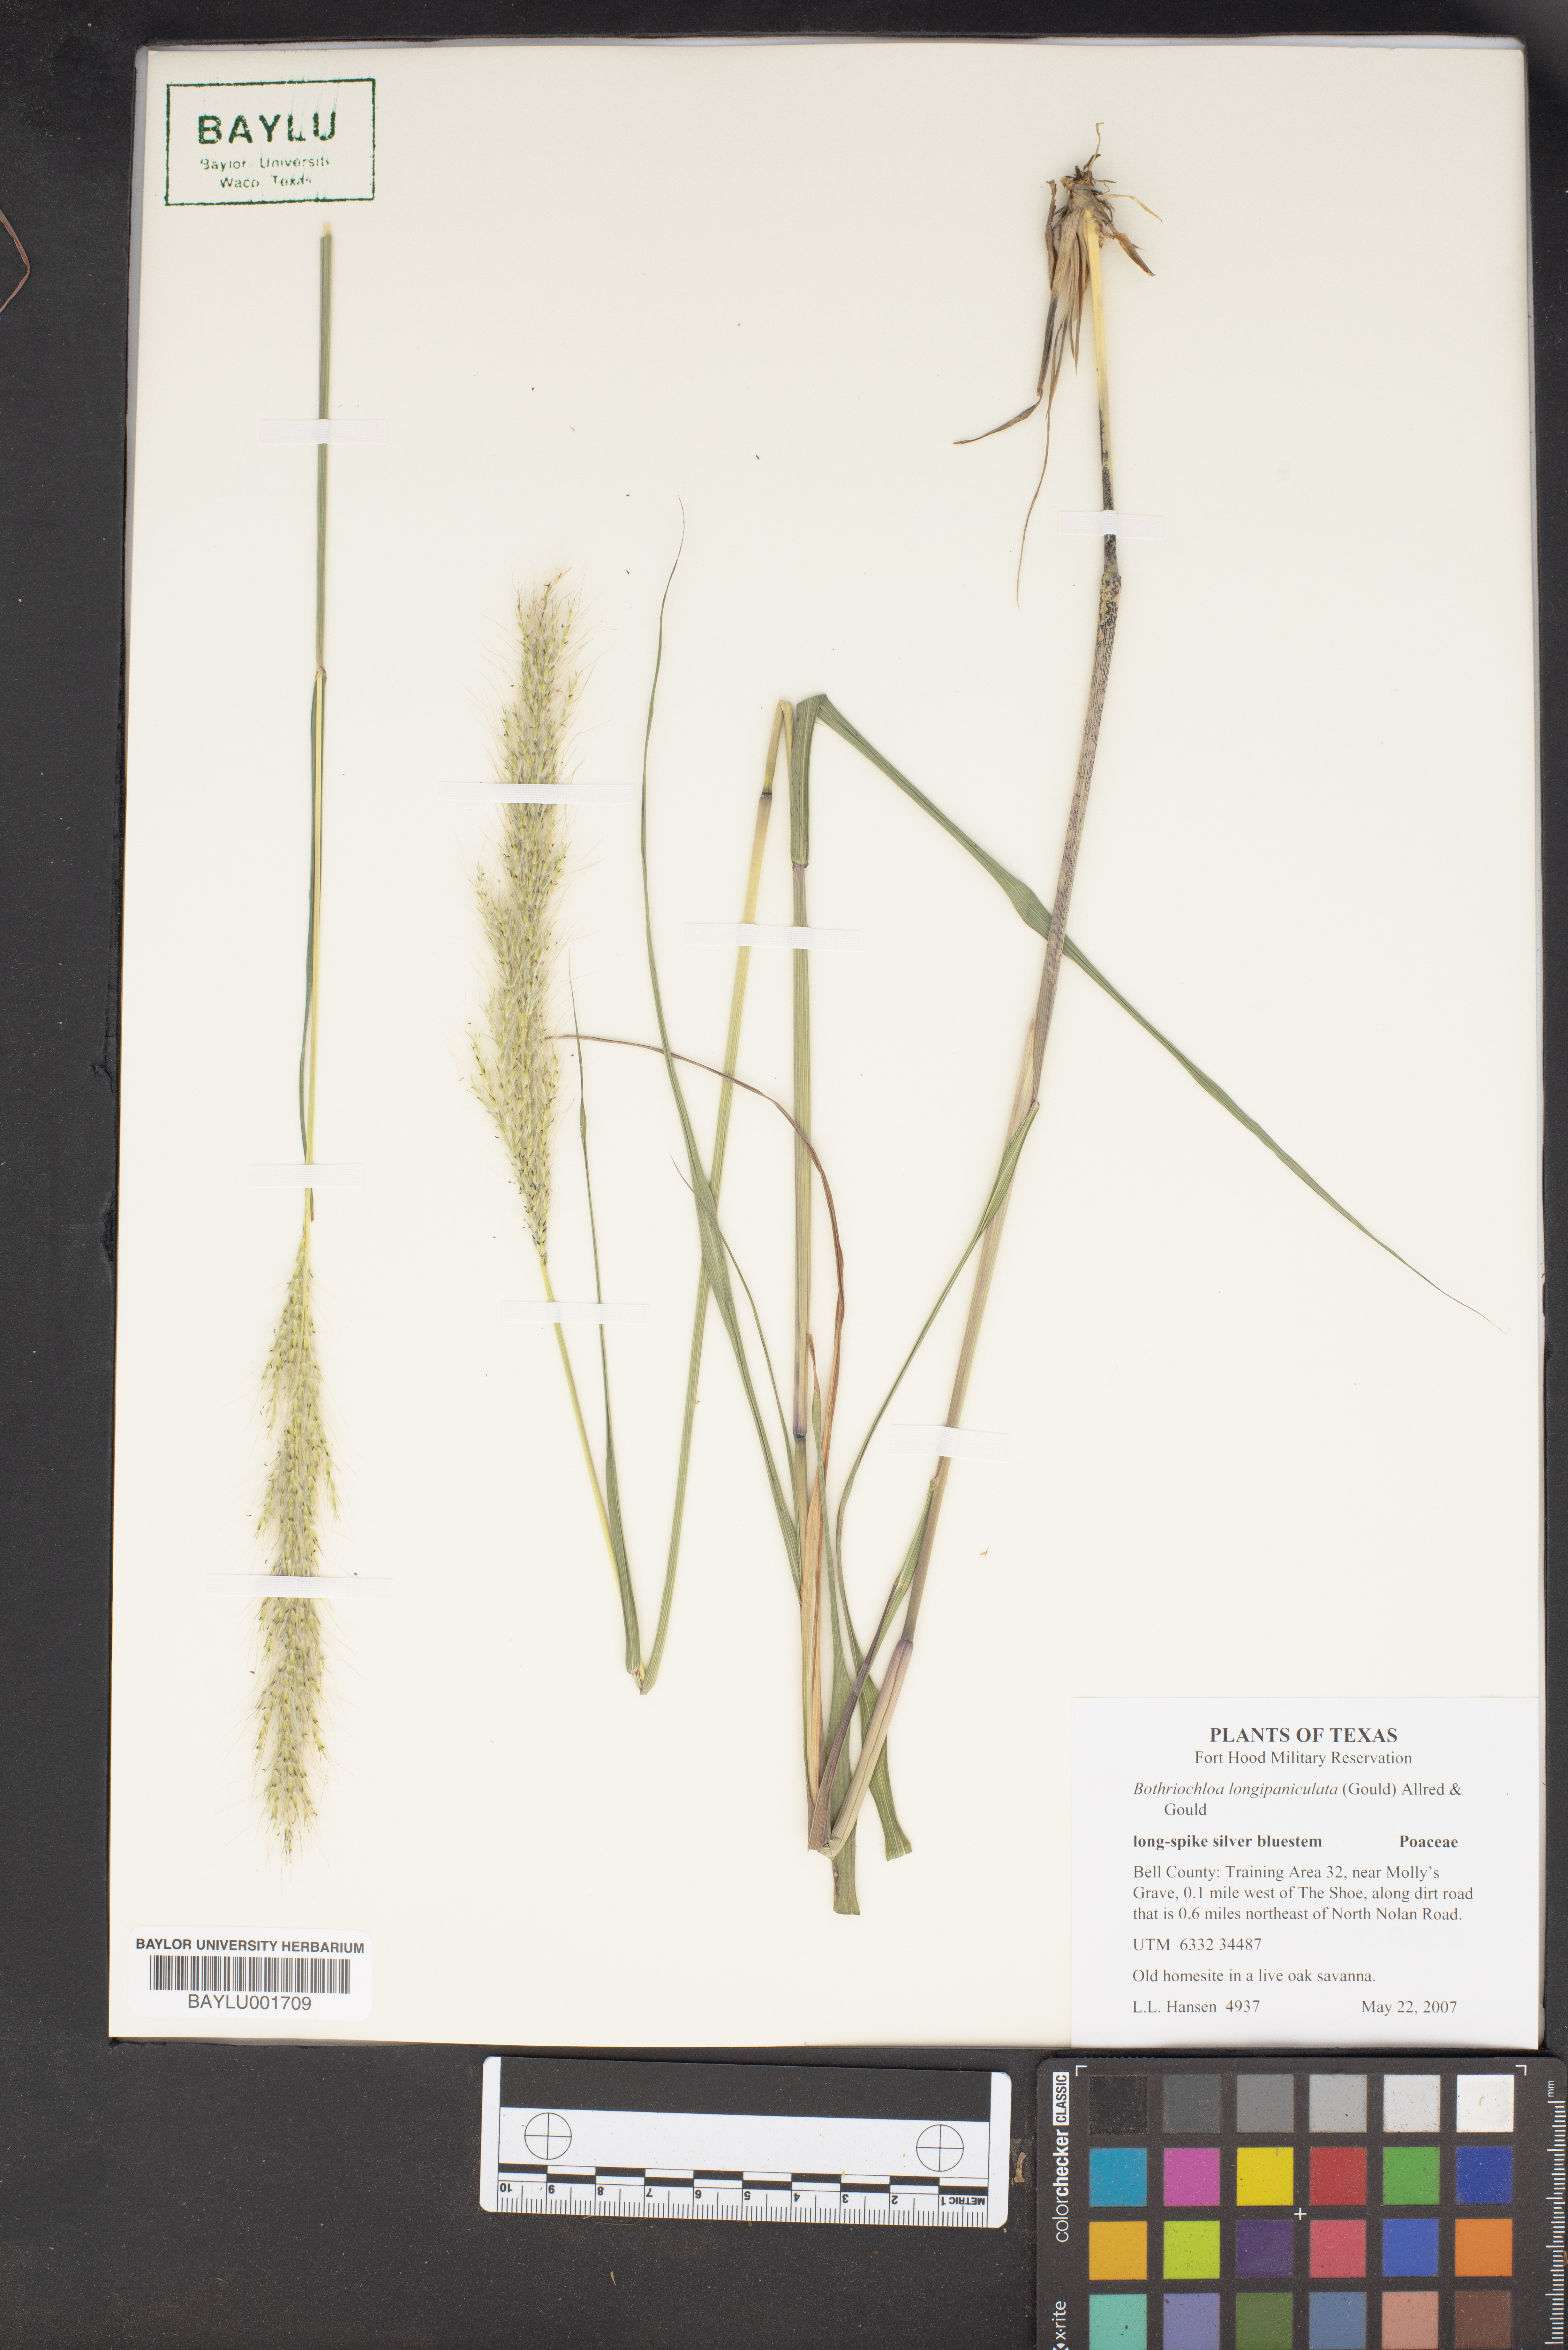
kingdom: Plantae
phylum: Tracheophyta
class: Liliopsida
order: Poales
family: Poaceae
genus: Bothriochloa
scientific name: Bothriochloa longipaniculata
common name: Longspike silver bluestem
